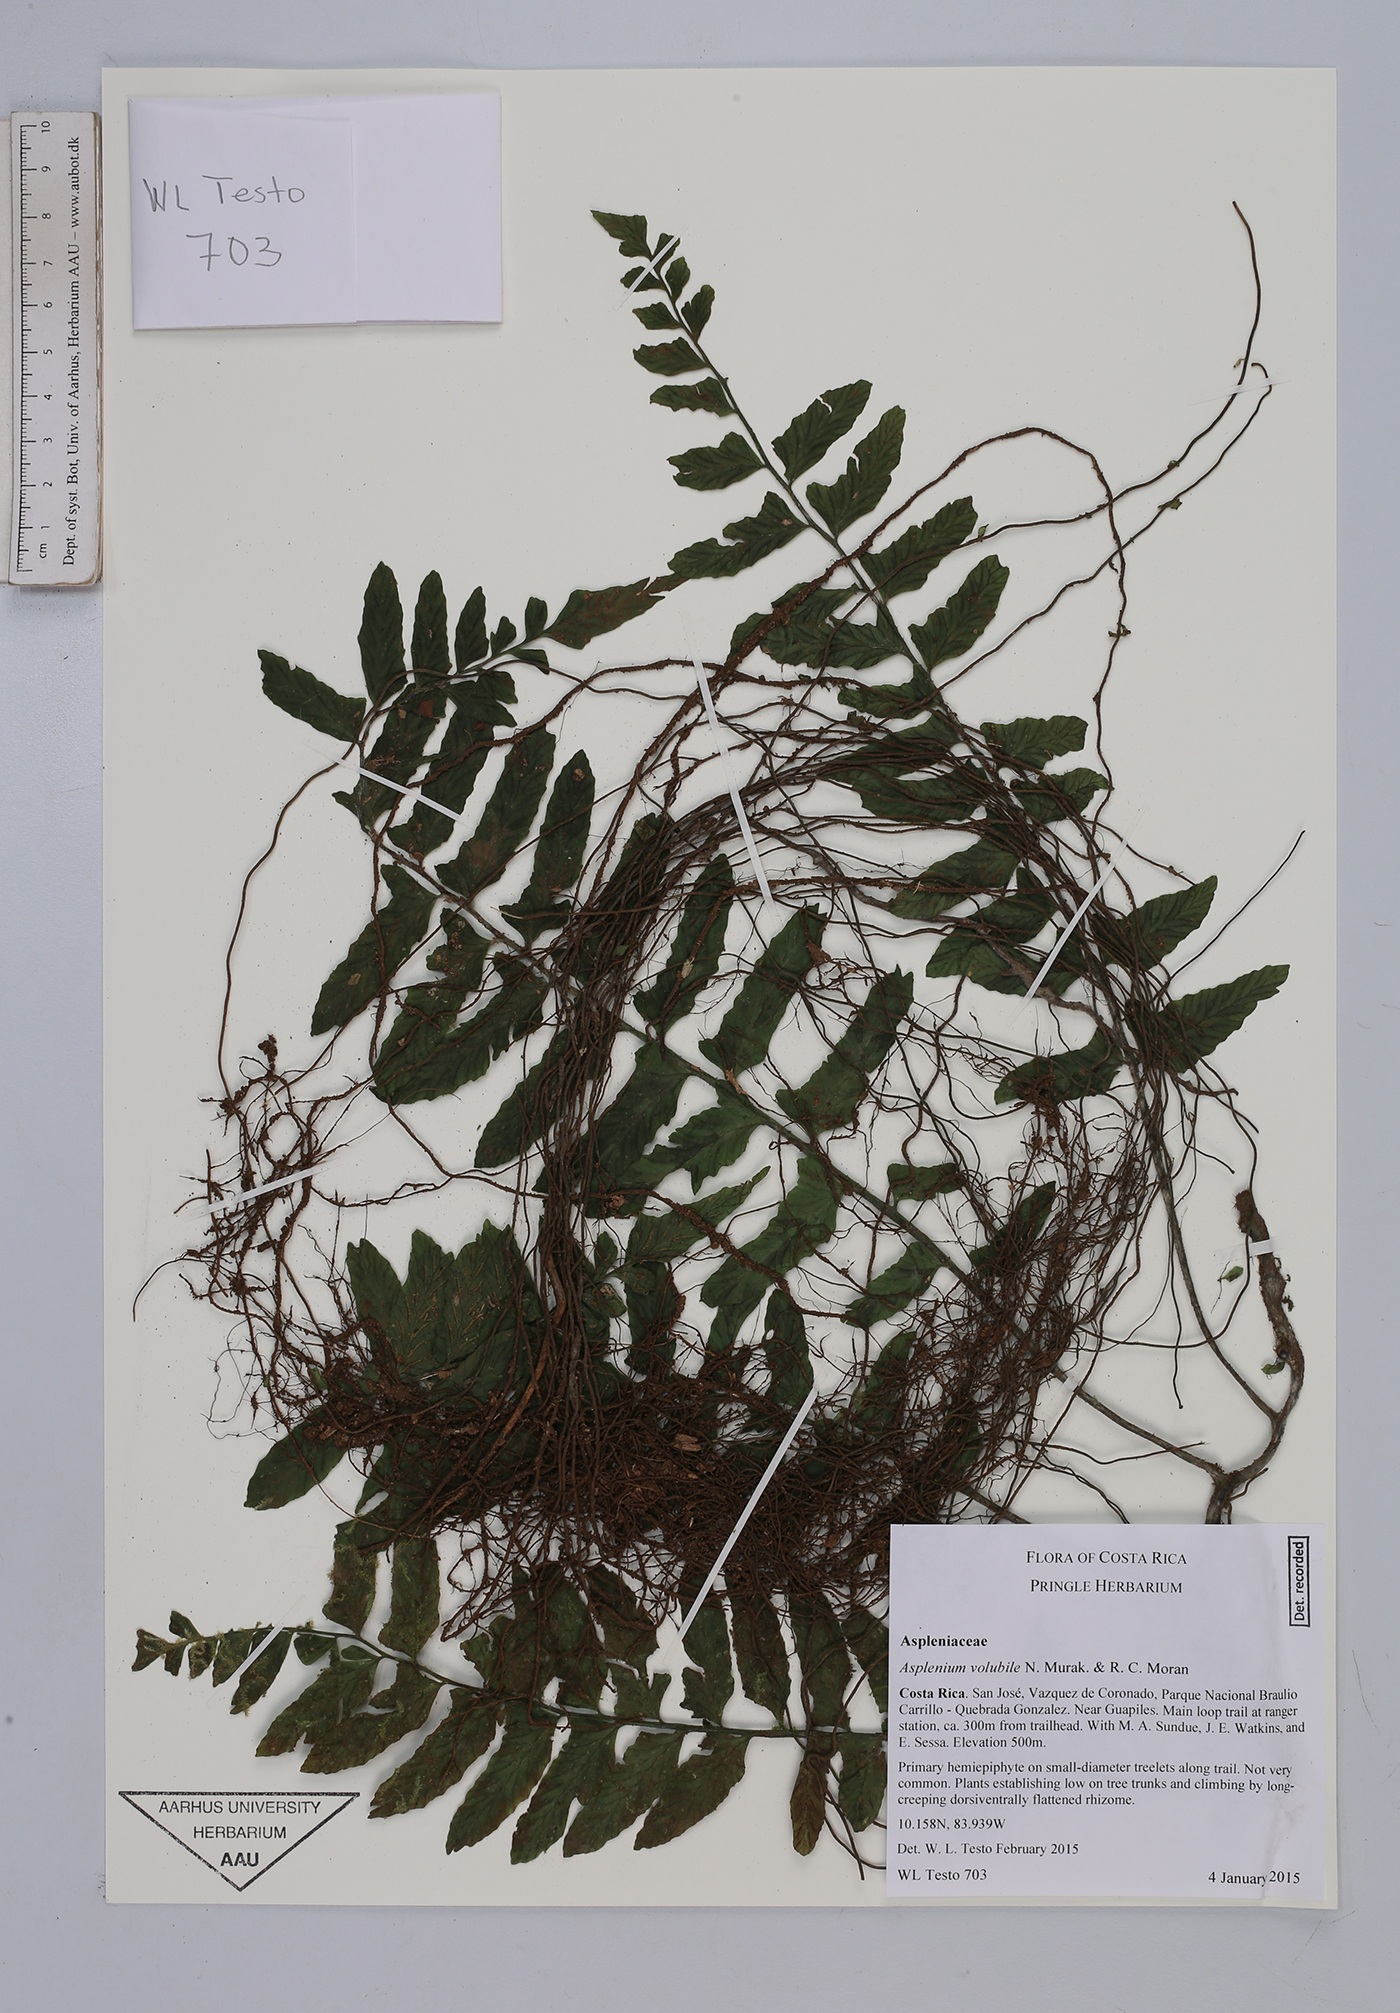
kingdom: Plantae
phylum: Tracheophyta
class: Polypodiopsida
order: Polypodiales
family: Aspleniaceae
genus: Hymenasplenium
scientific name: Hymenasplenium volubile
